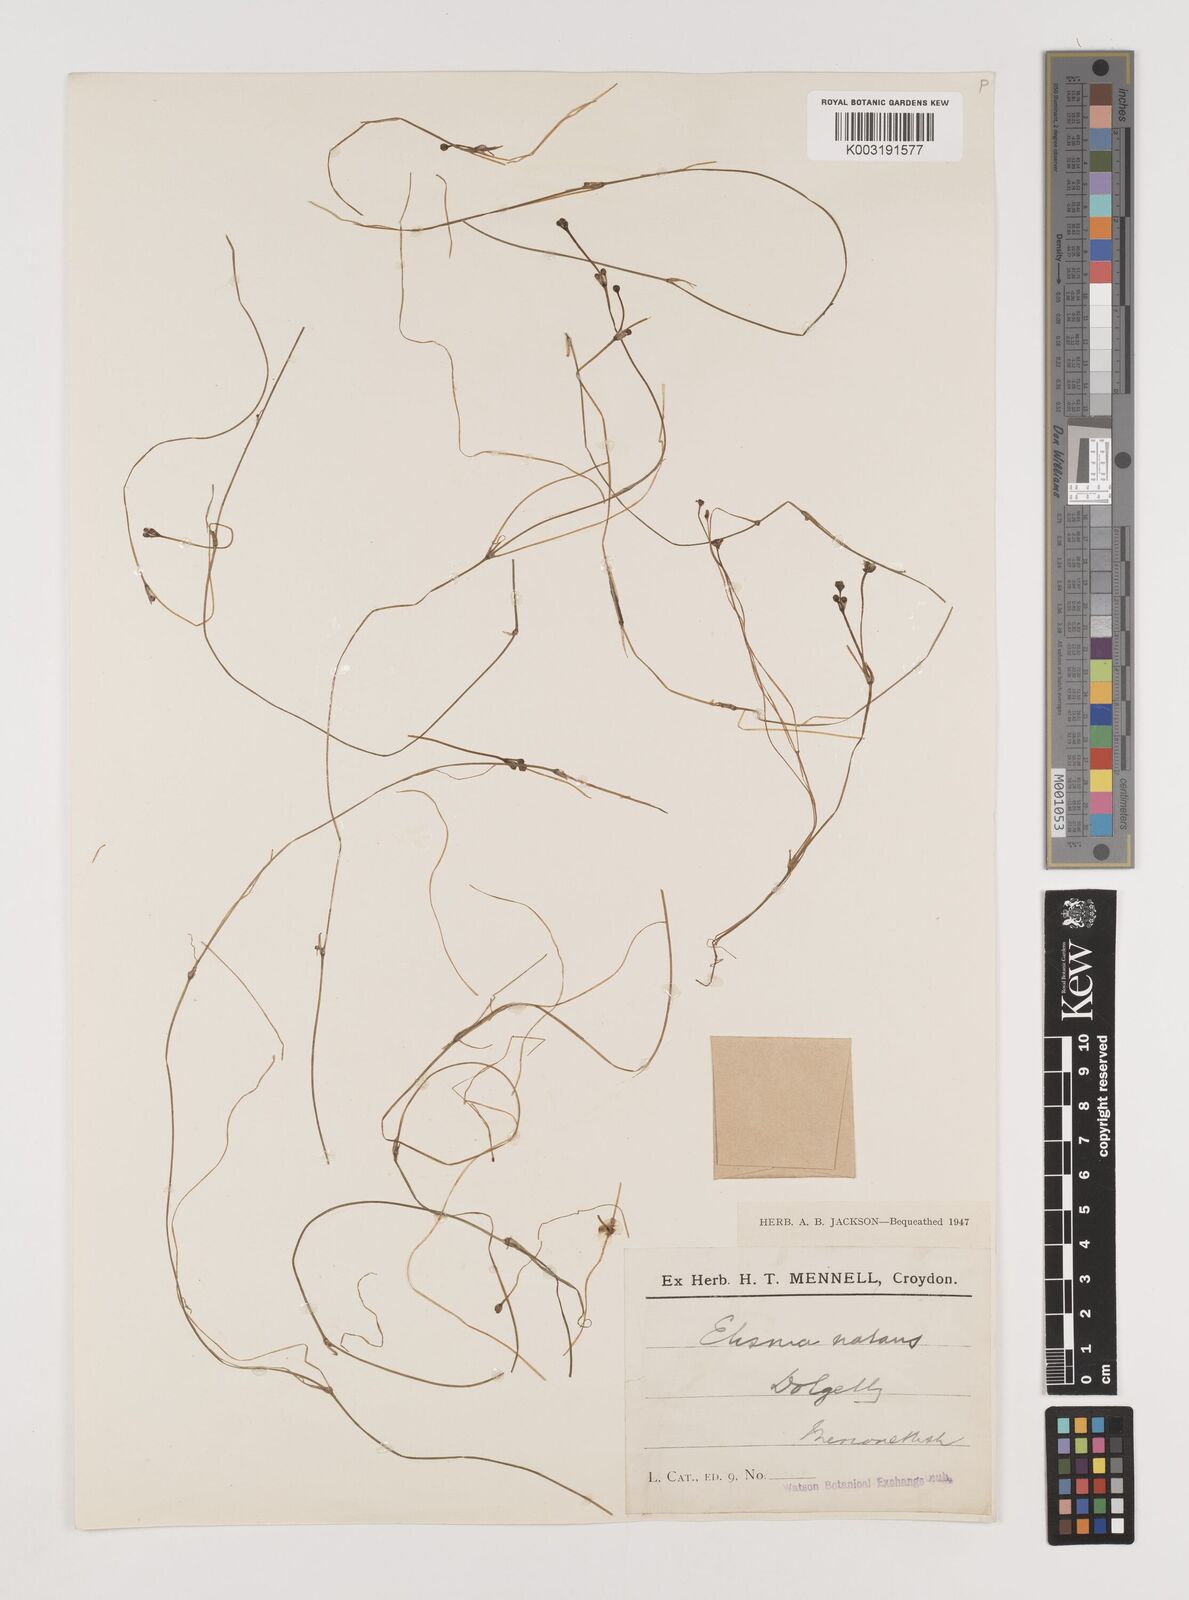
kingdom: Plantae
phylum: Tracheophyta
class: Liliopsida
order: Alismatales
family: Alismataceae
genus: Luronium
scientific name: Luronium natans
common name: Floating water-plantain
